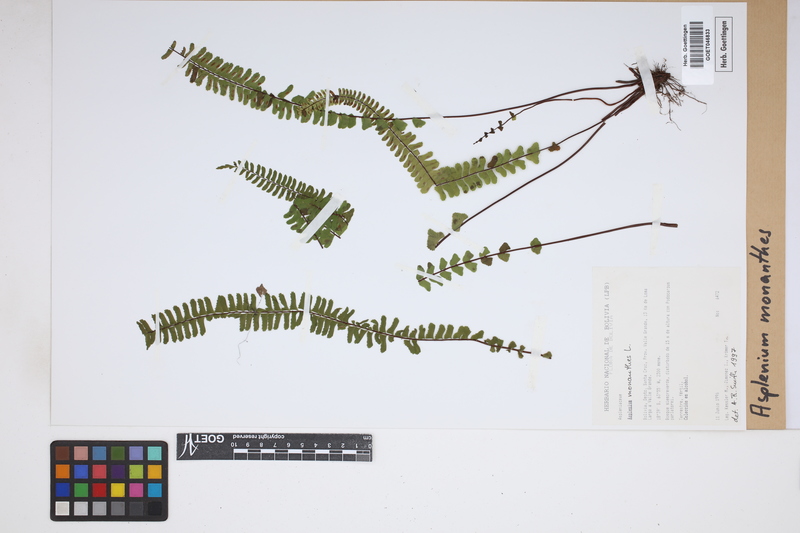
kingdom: Plantae
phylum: Tracheophyta
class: Polypodiopsida
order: Polypodiales
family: Aspleniaceae
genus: Asplenium
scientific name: Asplenium monanthes
